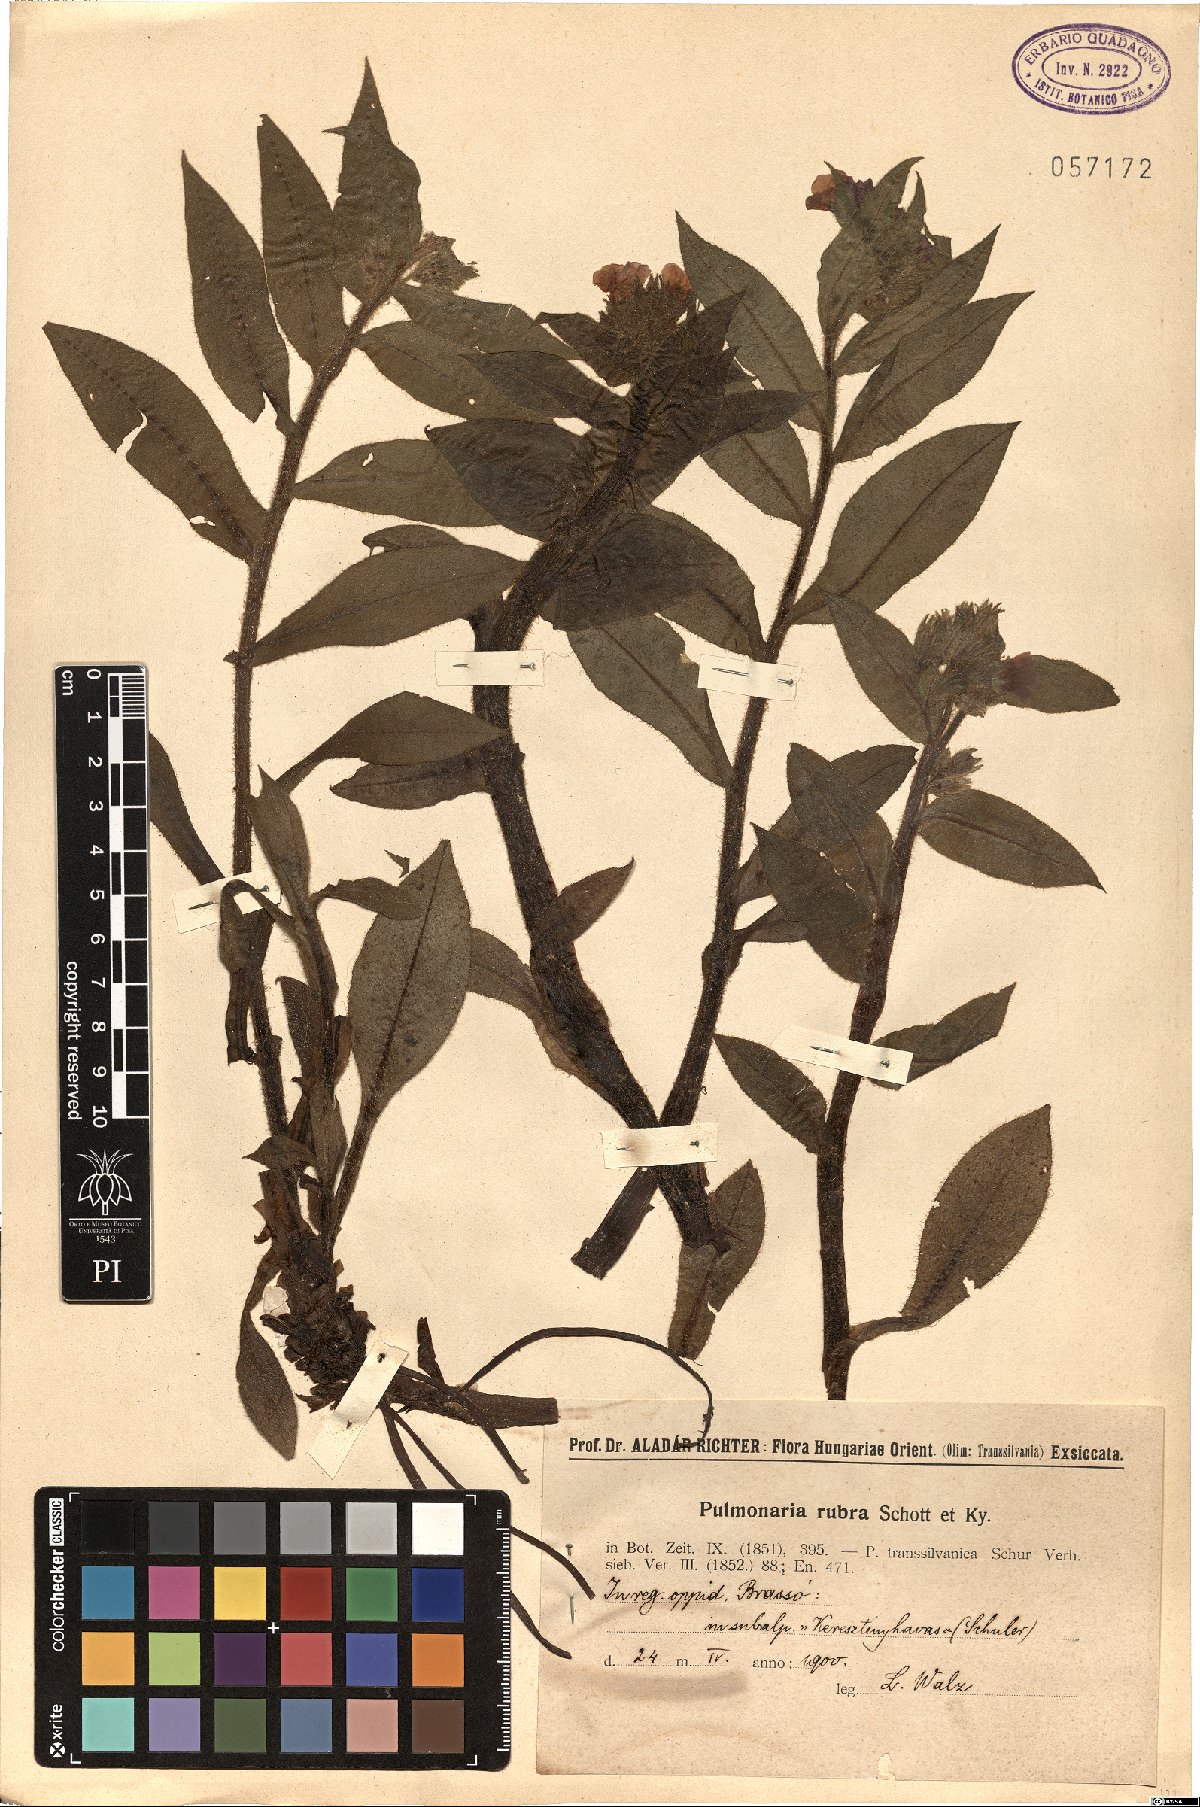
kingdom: Plantae
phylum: Tracheophyta
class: Magnoliopsida
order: Boraginales
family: Boraginaceae
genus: Pulmonaria
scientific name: Pulmonaria rubra
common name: Red lungwort
